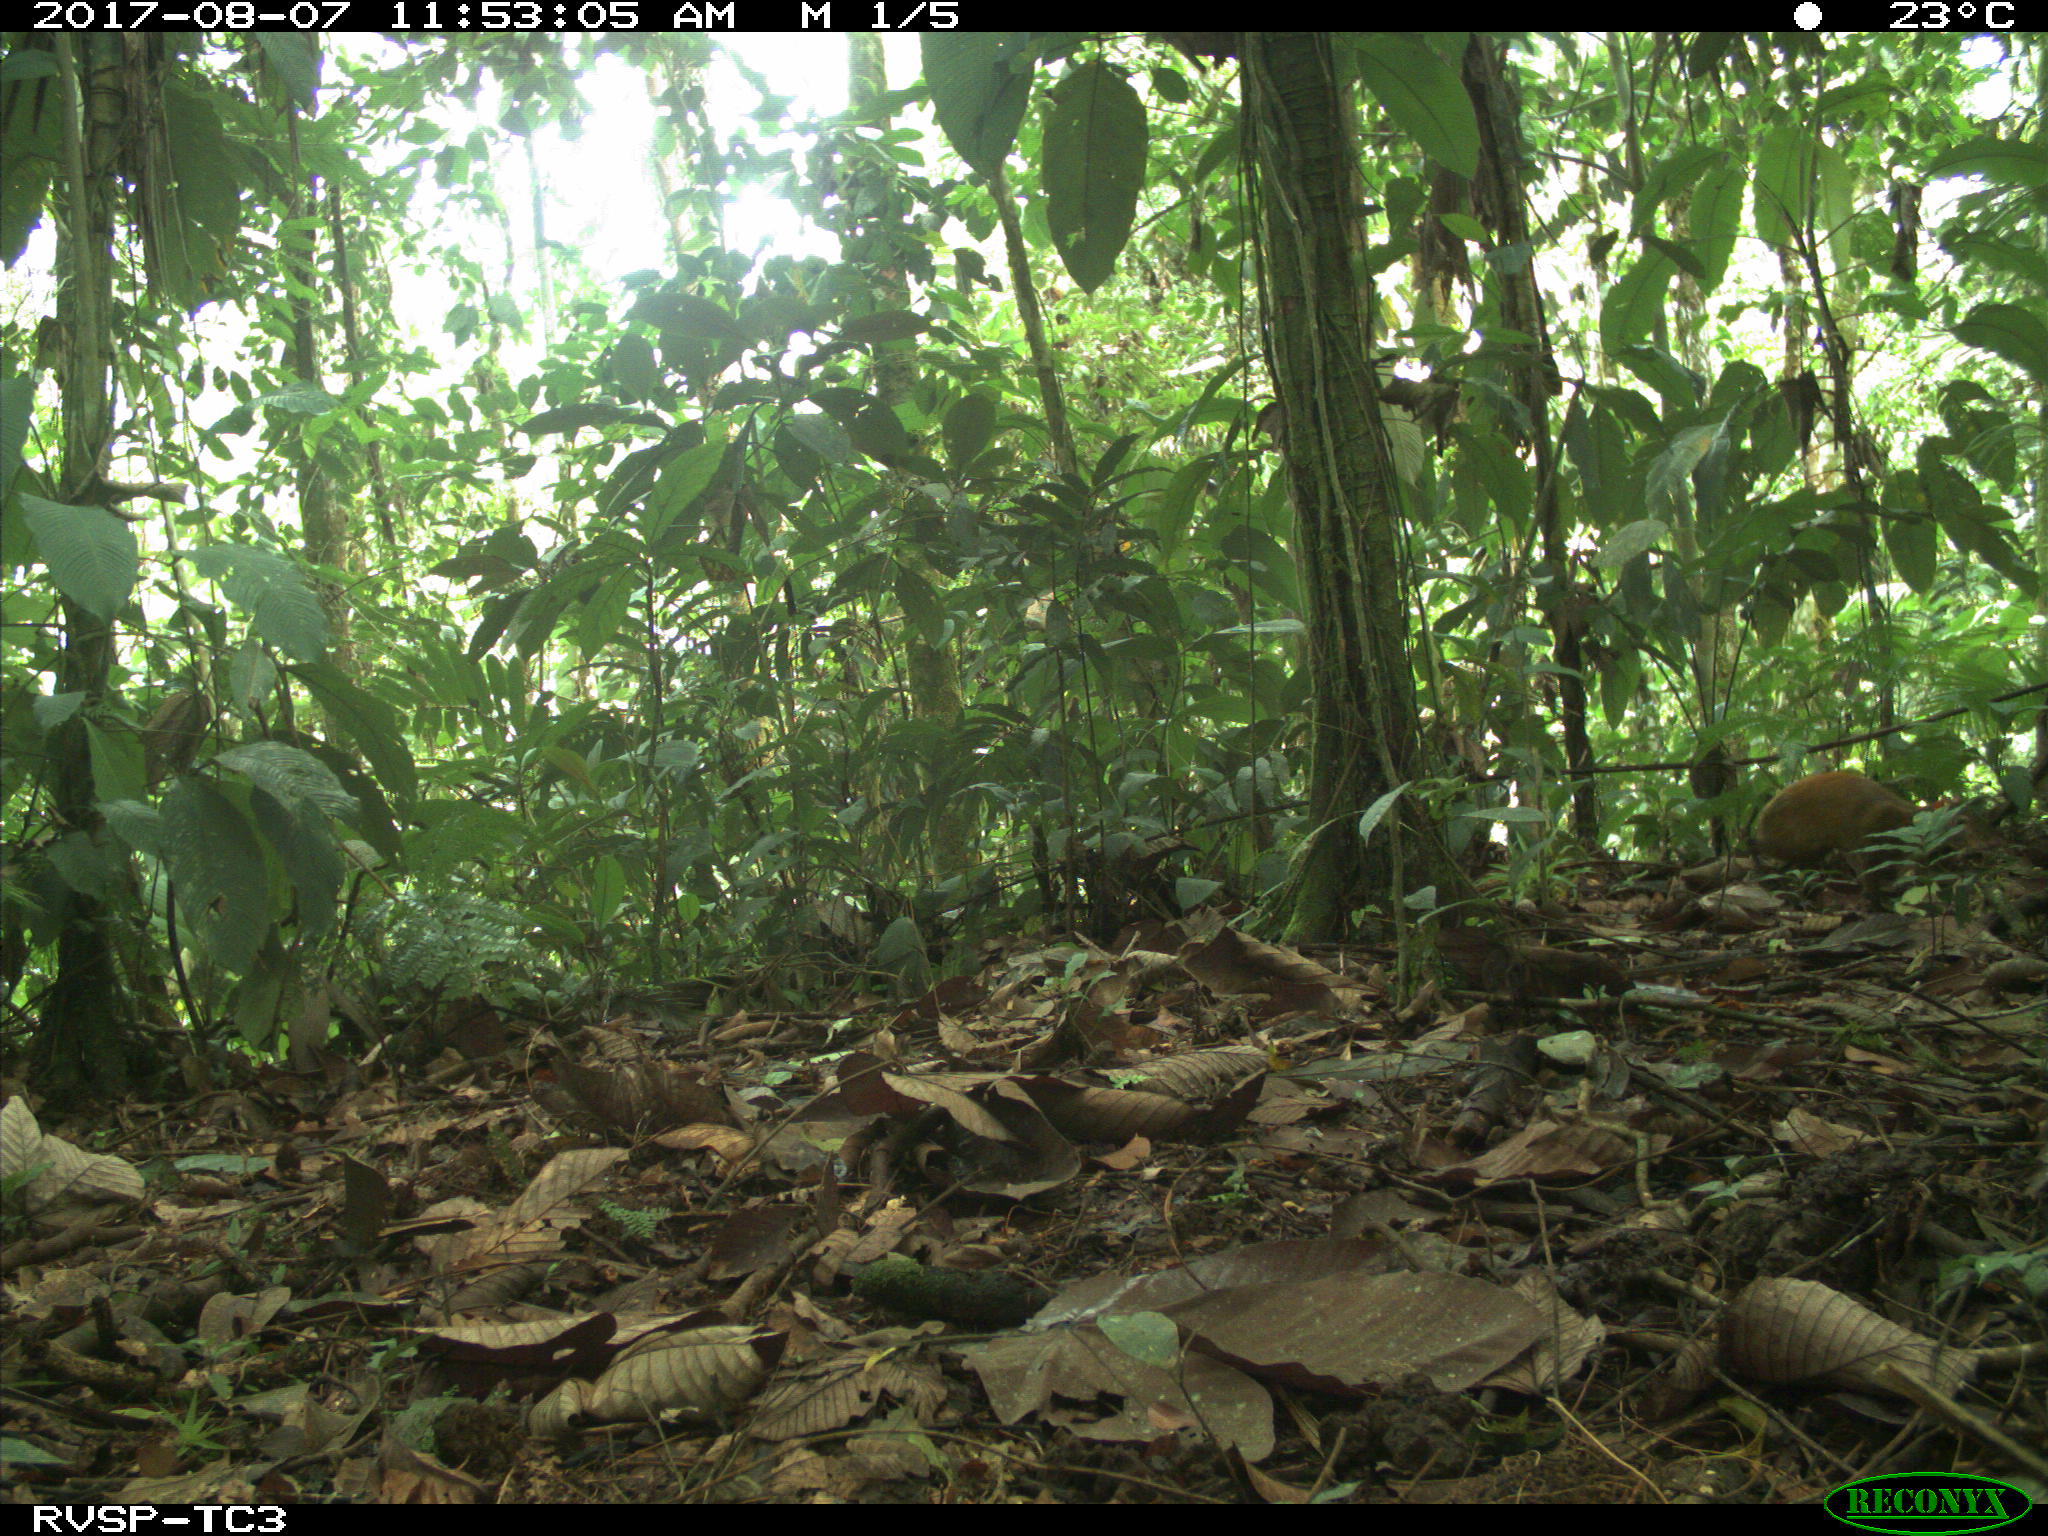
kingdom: Animalia
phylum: Chordata
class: Mammalia
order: Rodentia
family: Dasyproctidae
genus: Dasyprocta
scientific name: Dasyprocta punctata
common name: Central american agouti
